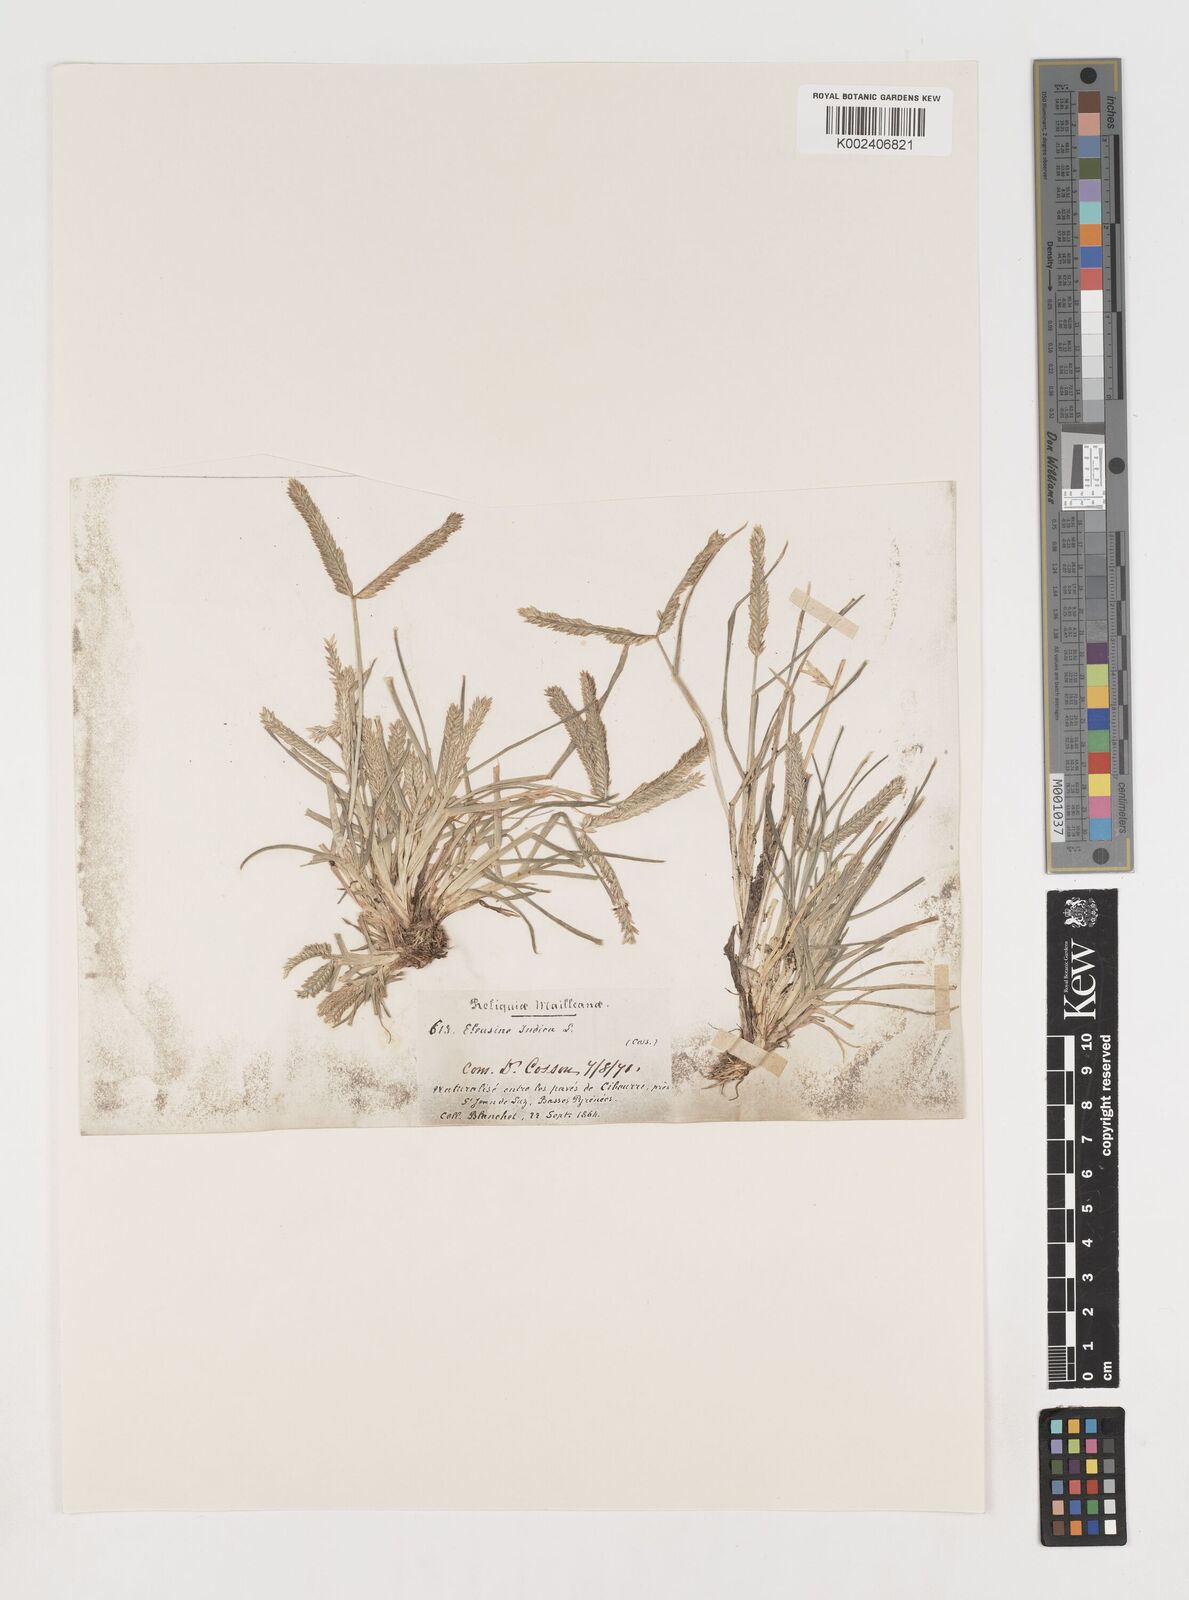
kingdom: Plantae
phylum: Tracheophyta
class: Liliopsida
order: Poales
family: Poaceae
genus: Eleusine
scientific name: Eleusine indica
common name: Yard-grass
